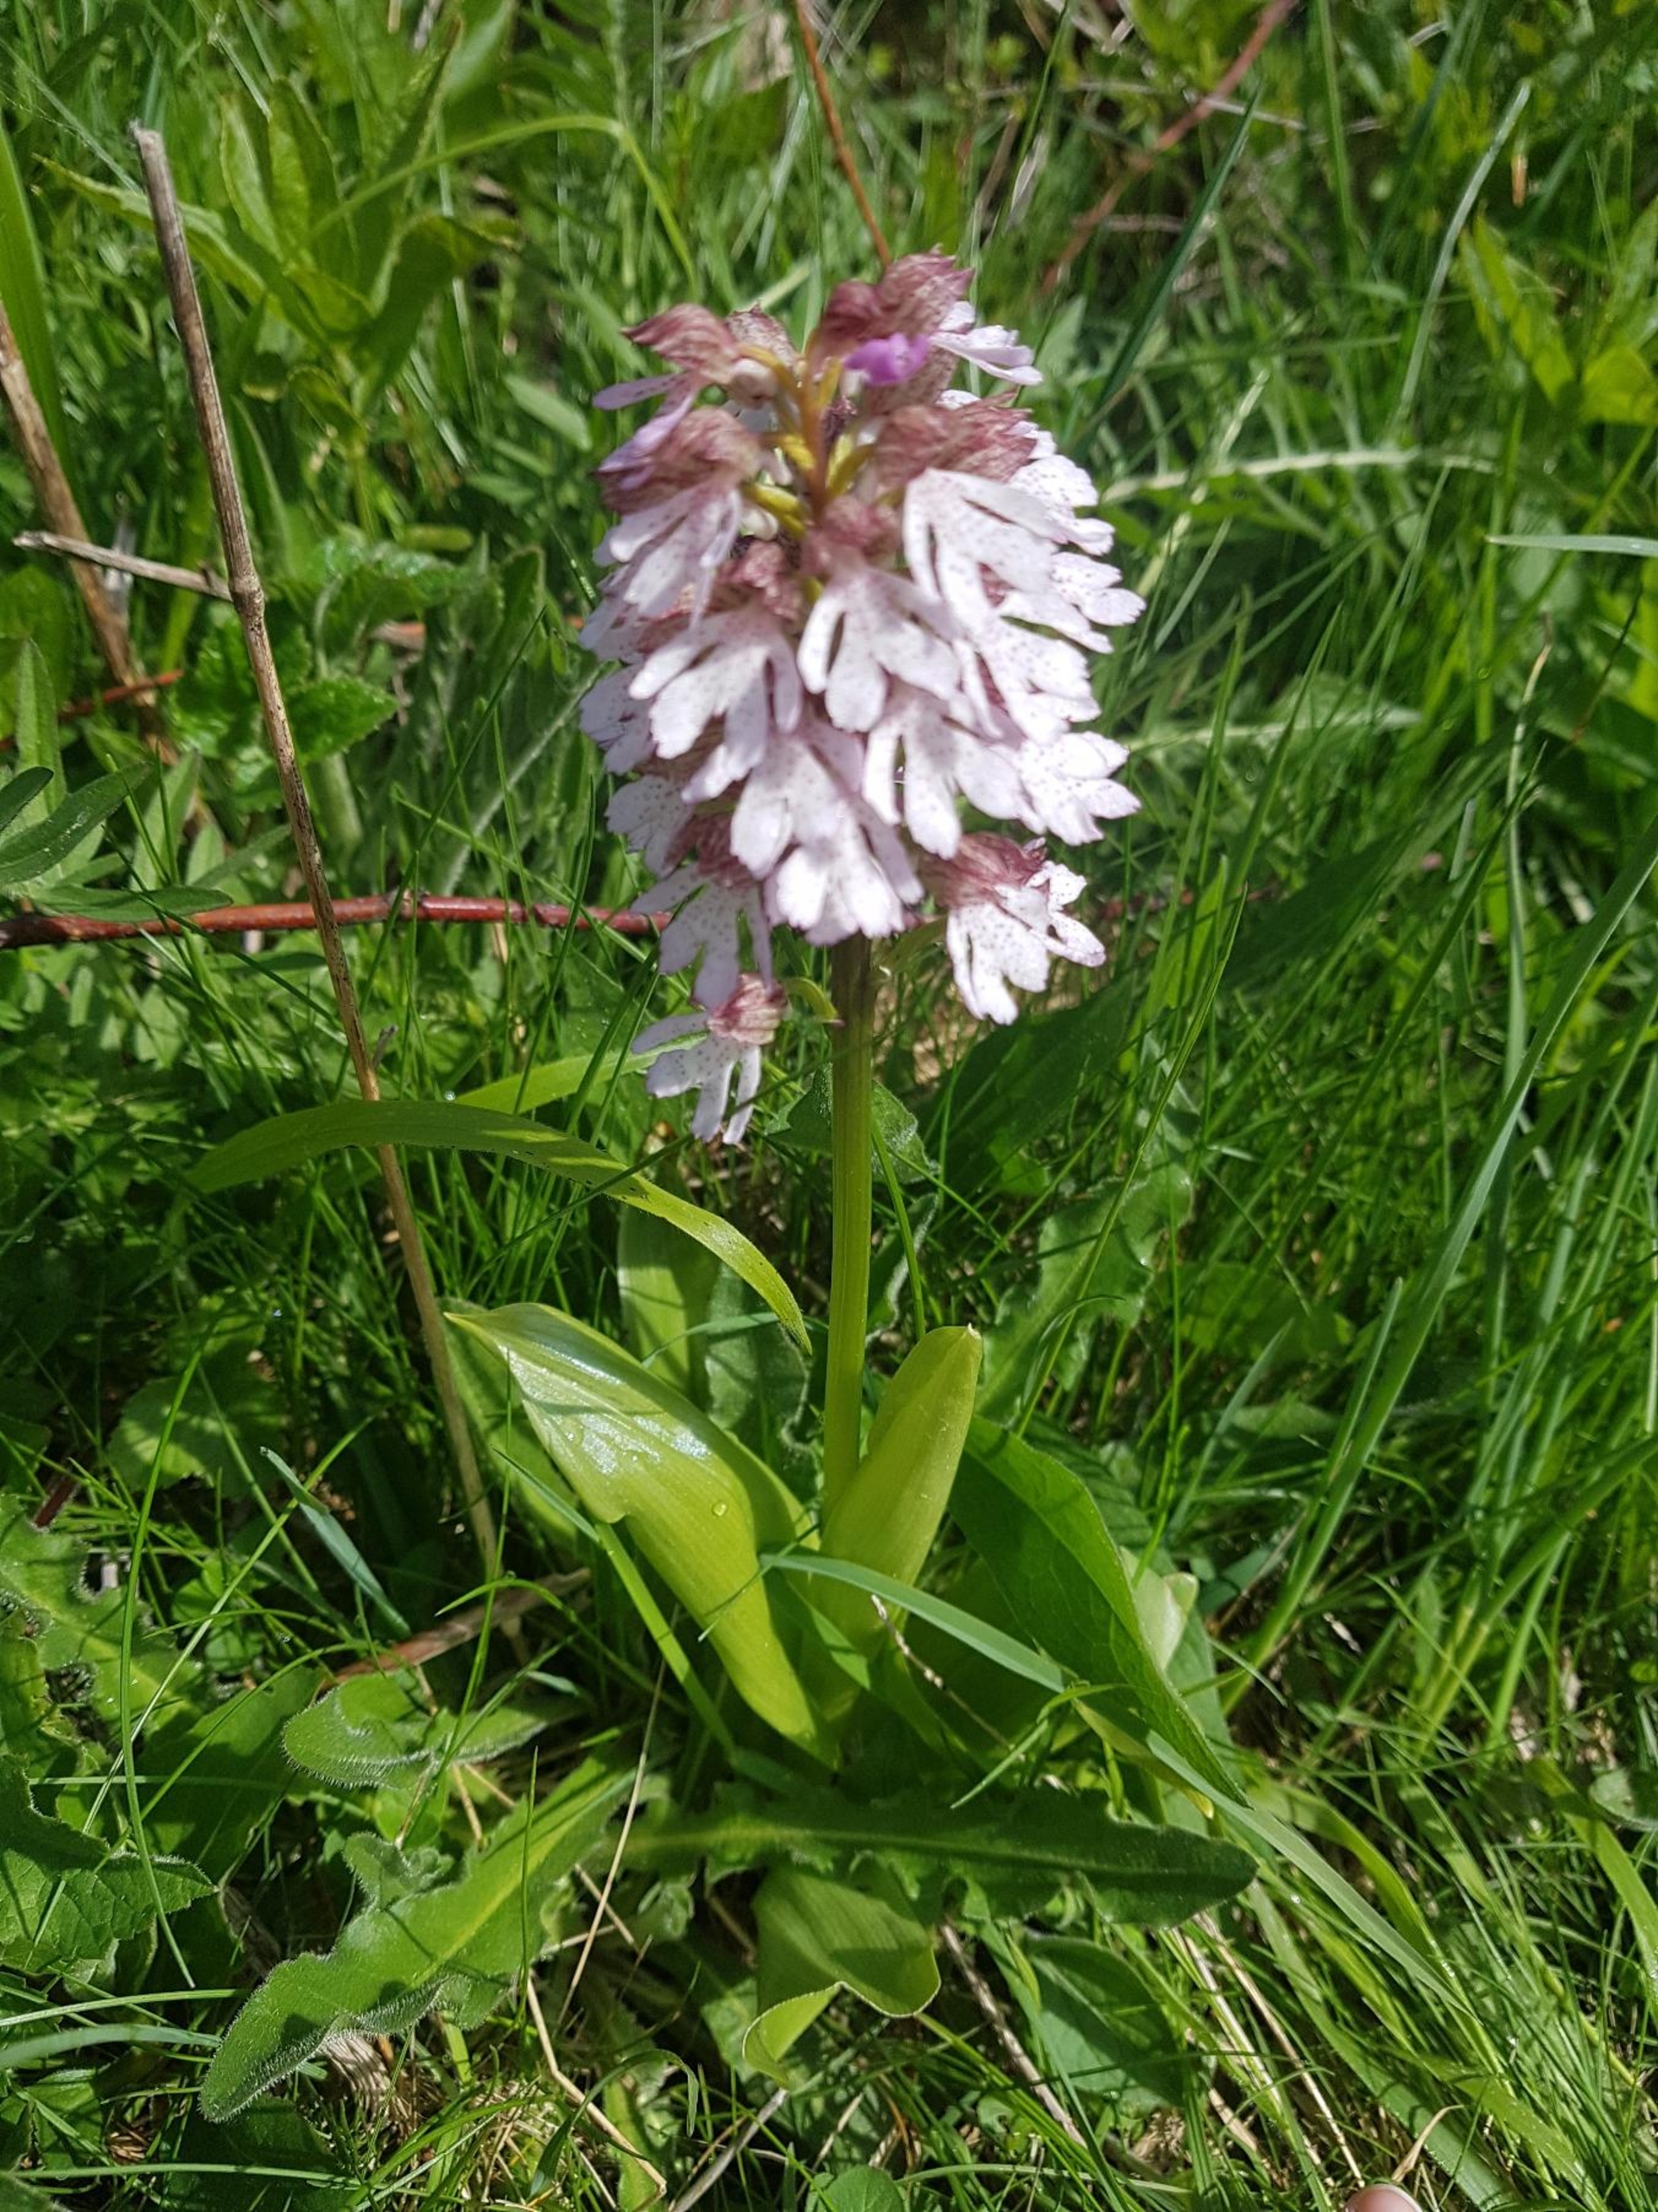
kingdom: Plantae
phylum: Tracheophyta
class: Liliopsida
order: Asparagales
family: Orchidaceae
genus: Orchis
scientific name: Orchis purpurea
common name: Stor gøgeurt
